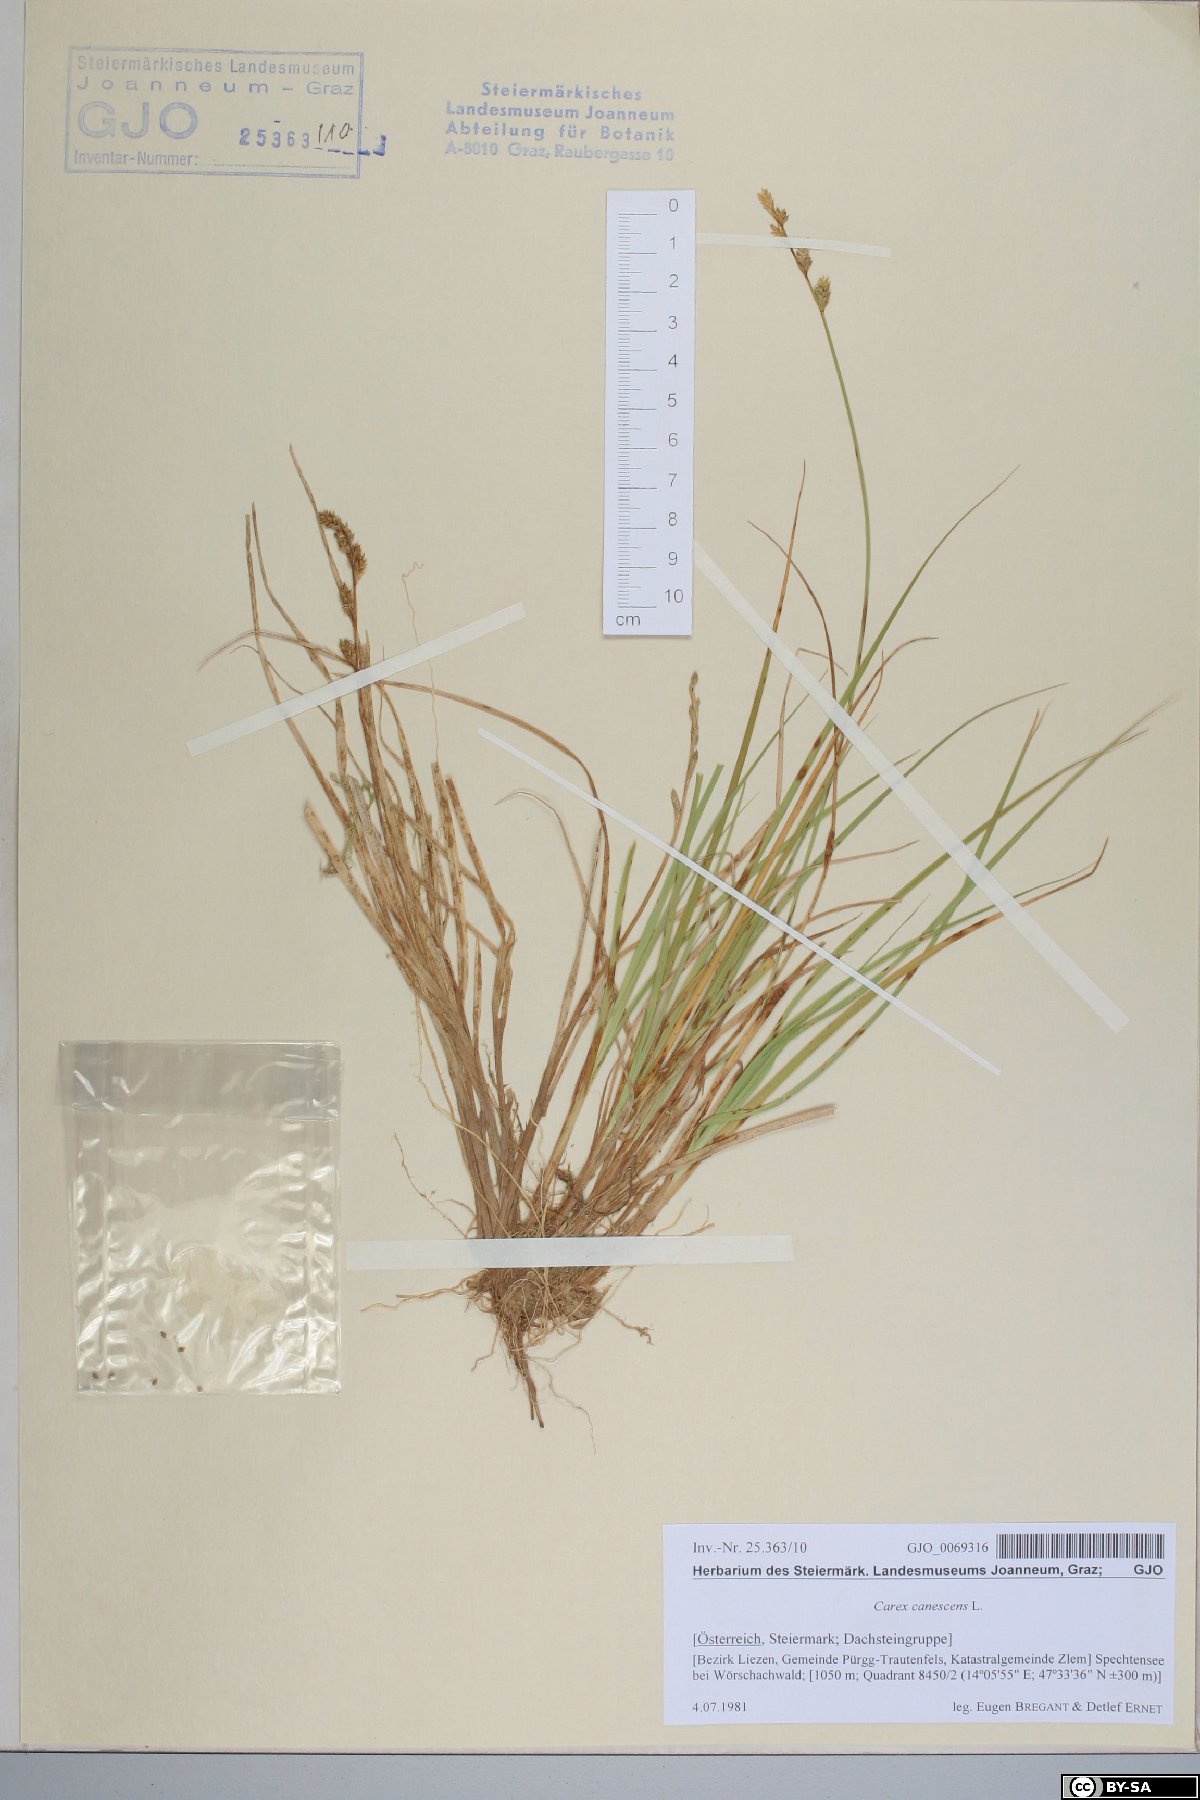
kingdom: Plantae
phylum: Tracheophyta
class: Liliopsida
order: Poales
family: Cyperaceae
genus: Carex
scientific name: Carex canescens
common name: White sedge
